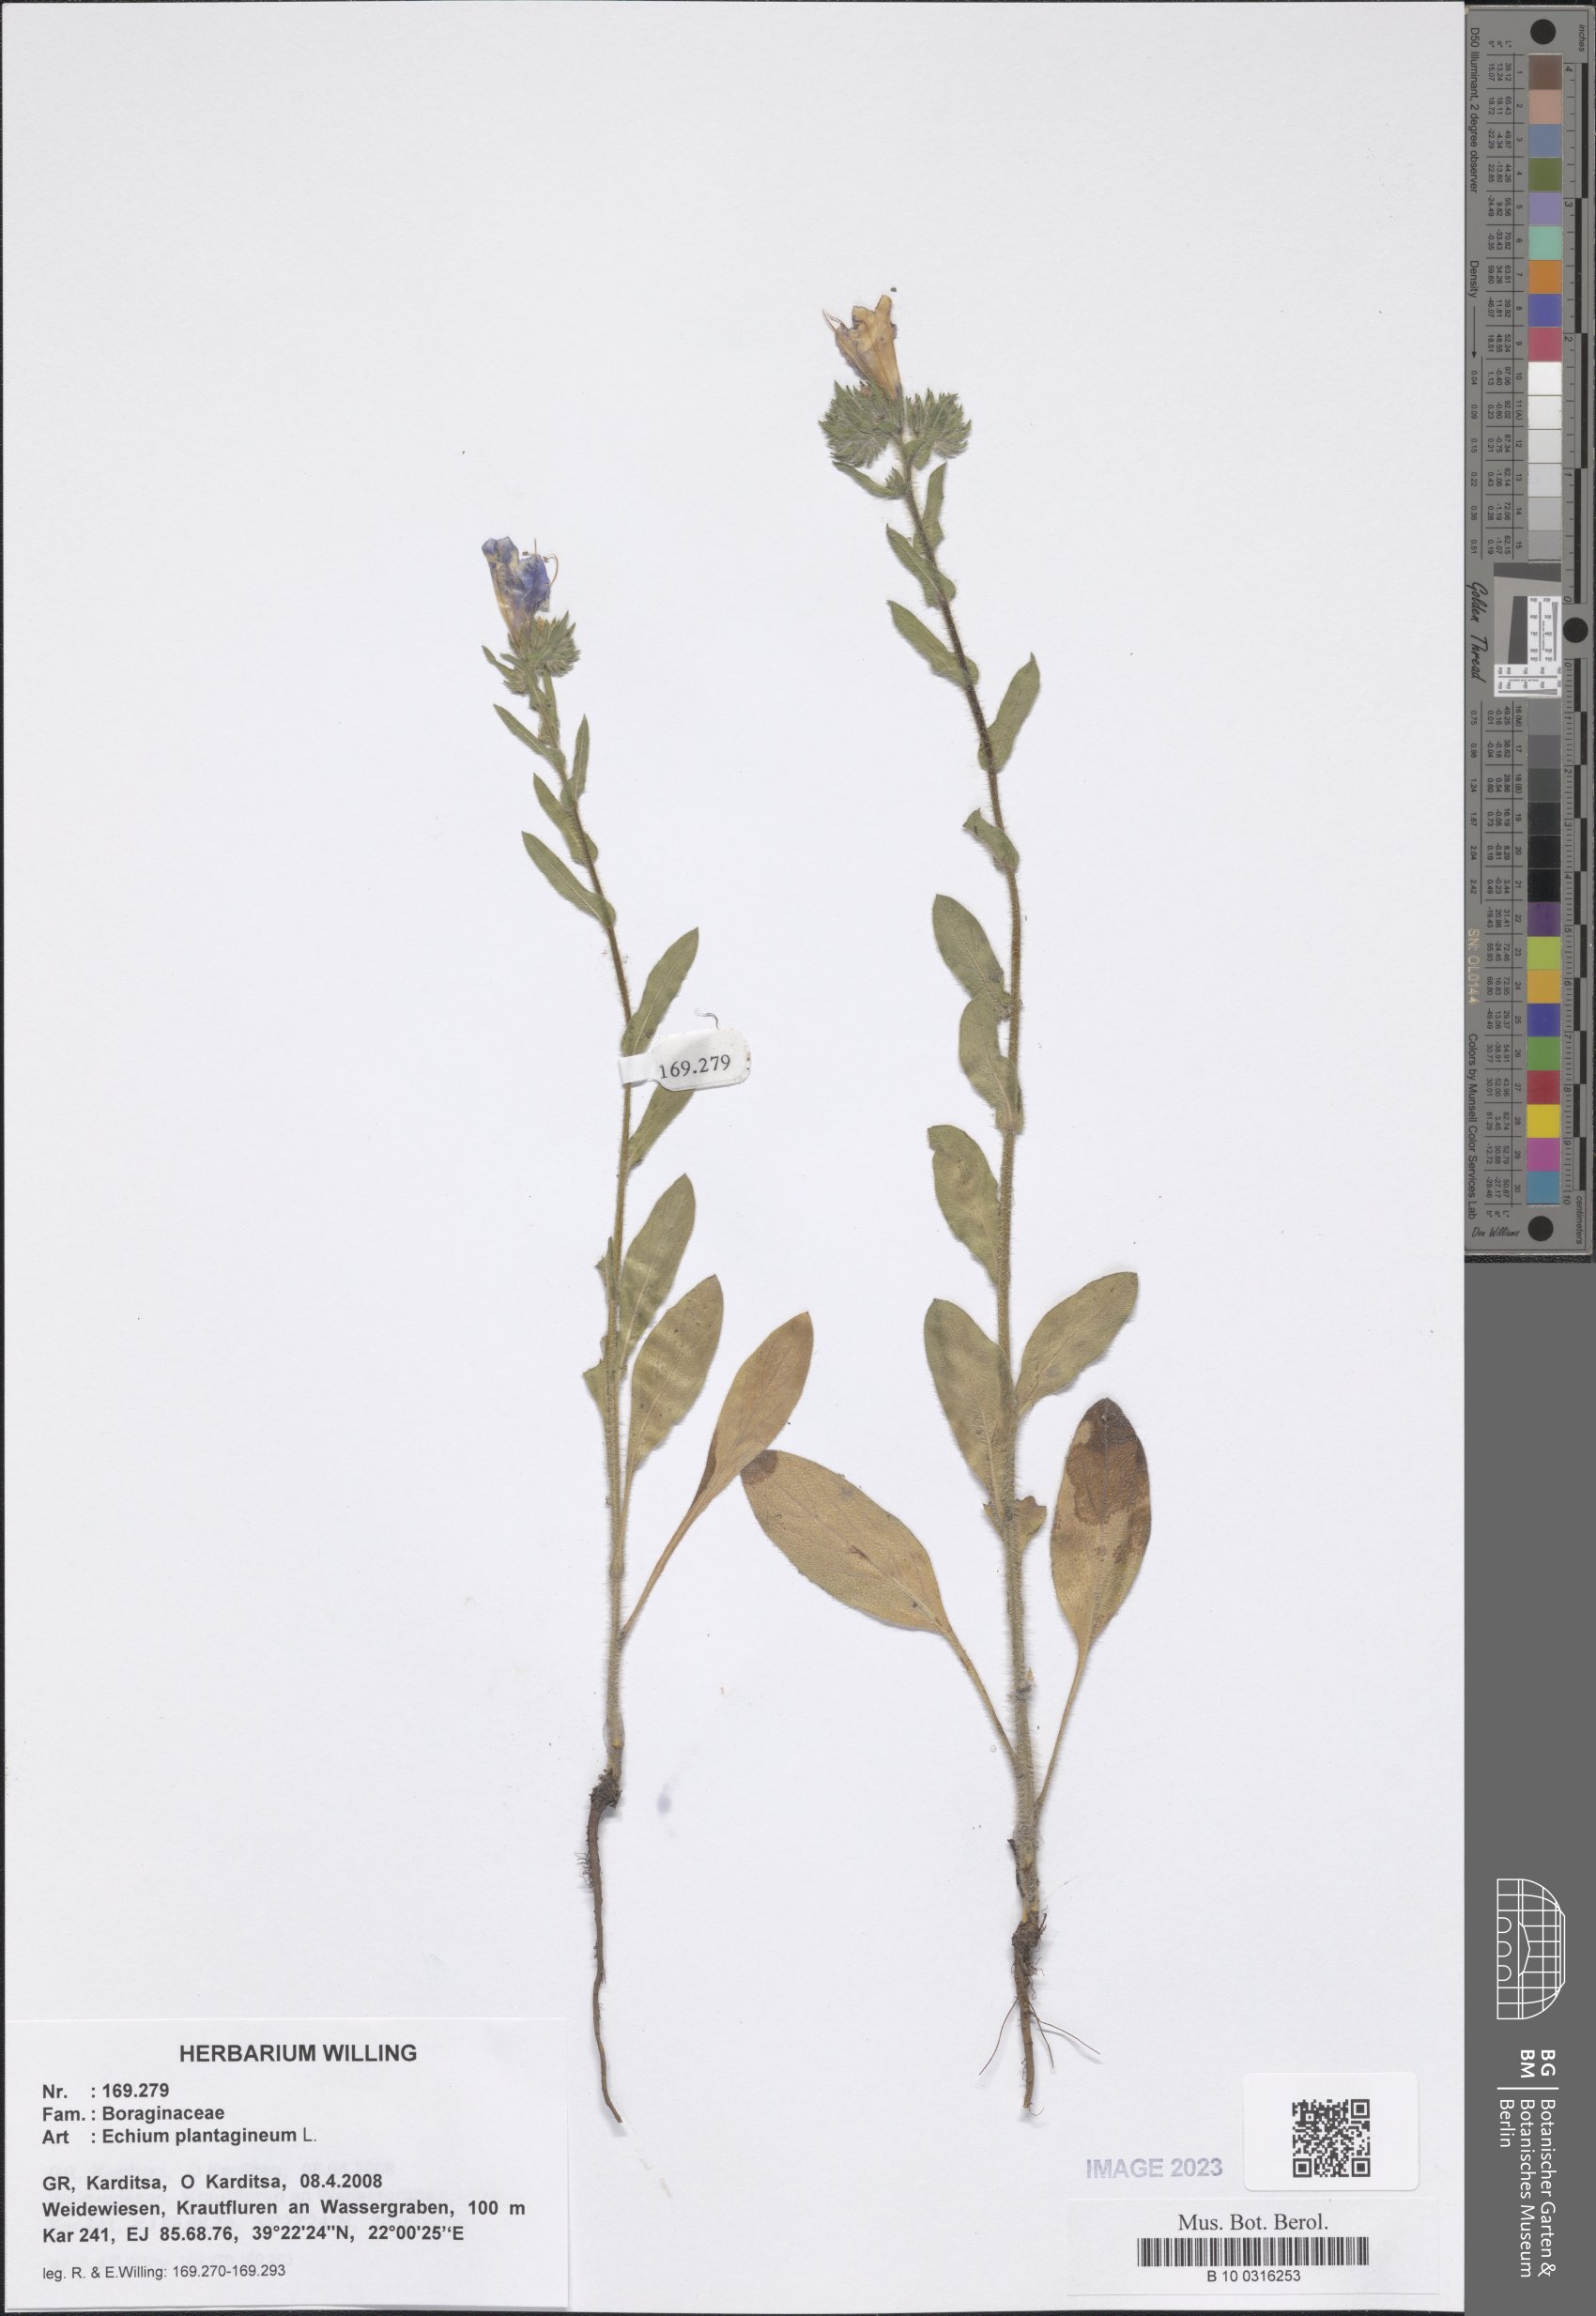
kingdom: Plantae
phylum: Tracheophyta
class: Magnoliopsida
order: Boraginales
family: Boraginaceae
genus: Echium
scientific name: Echium plantagineum
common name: Purple viper's-bugloss
